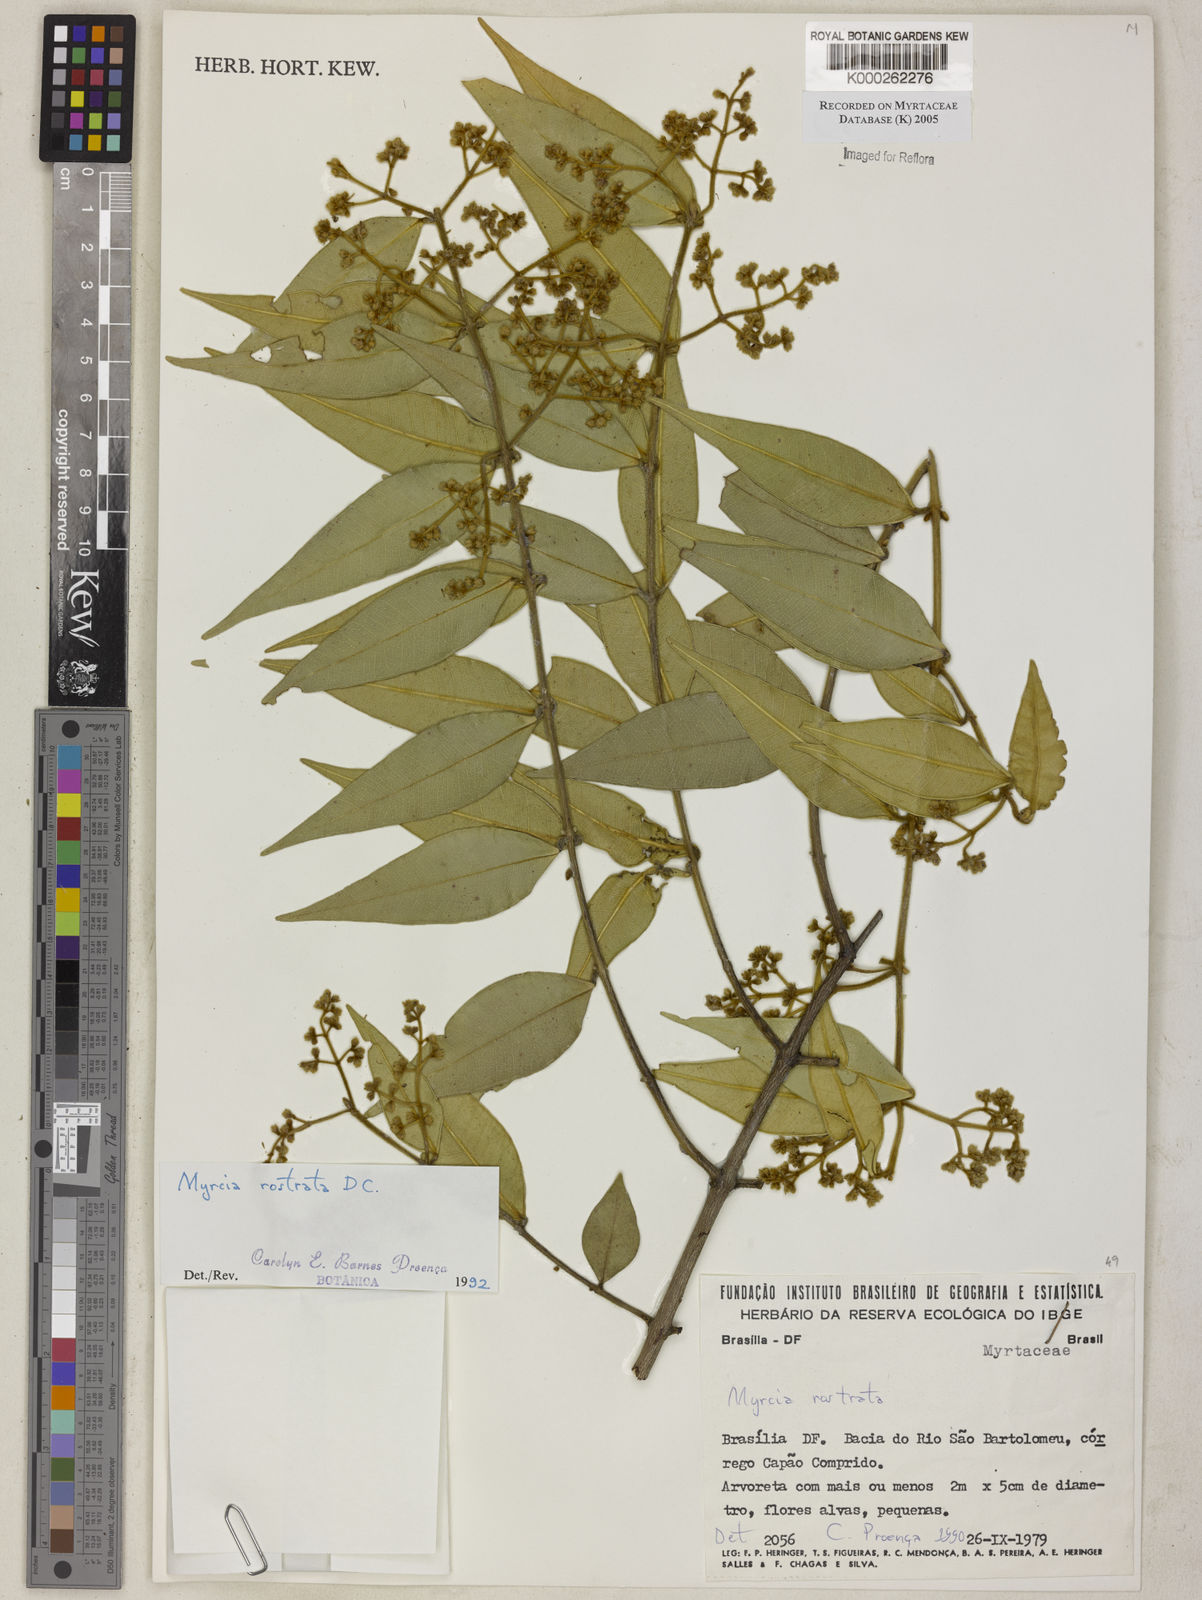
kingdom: Plantae
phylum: Tracheophyta
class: Magnoliopsida
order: Myrtales
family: Myrtaceae
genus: Myrcia
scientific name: Myrcia splendens
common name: Surinam cherry
